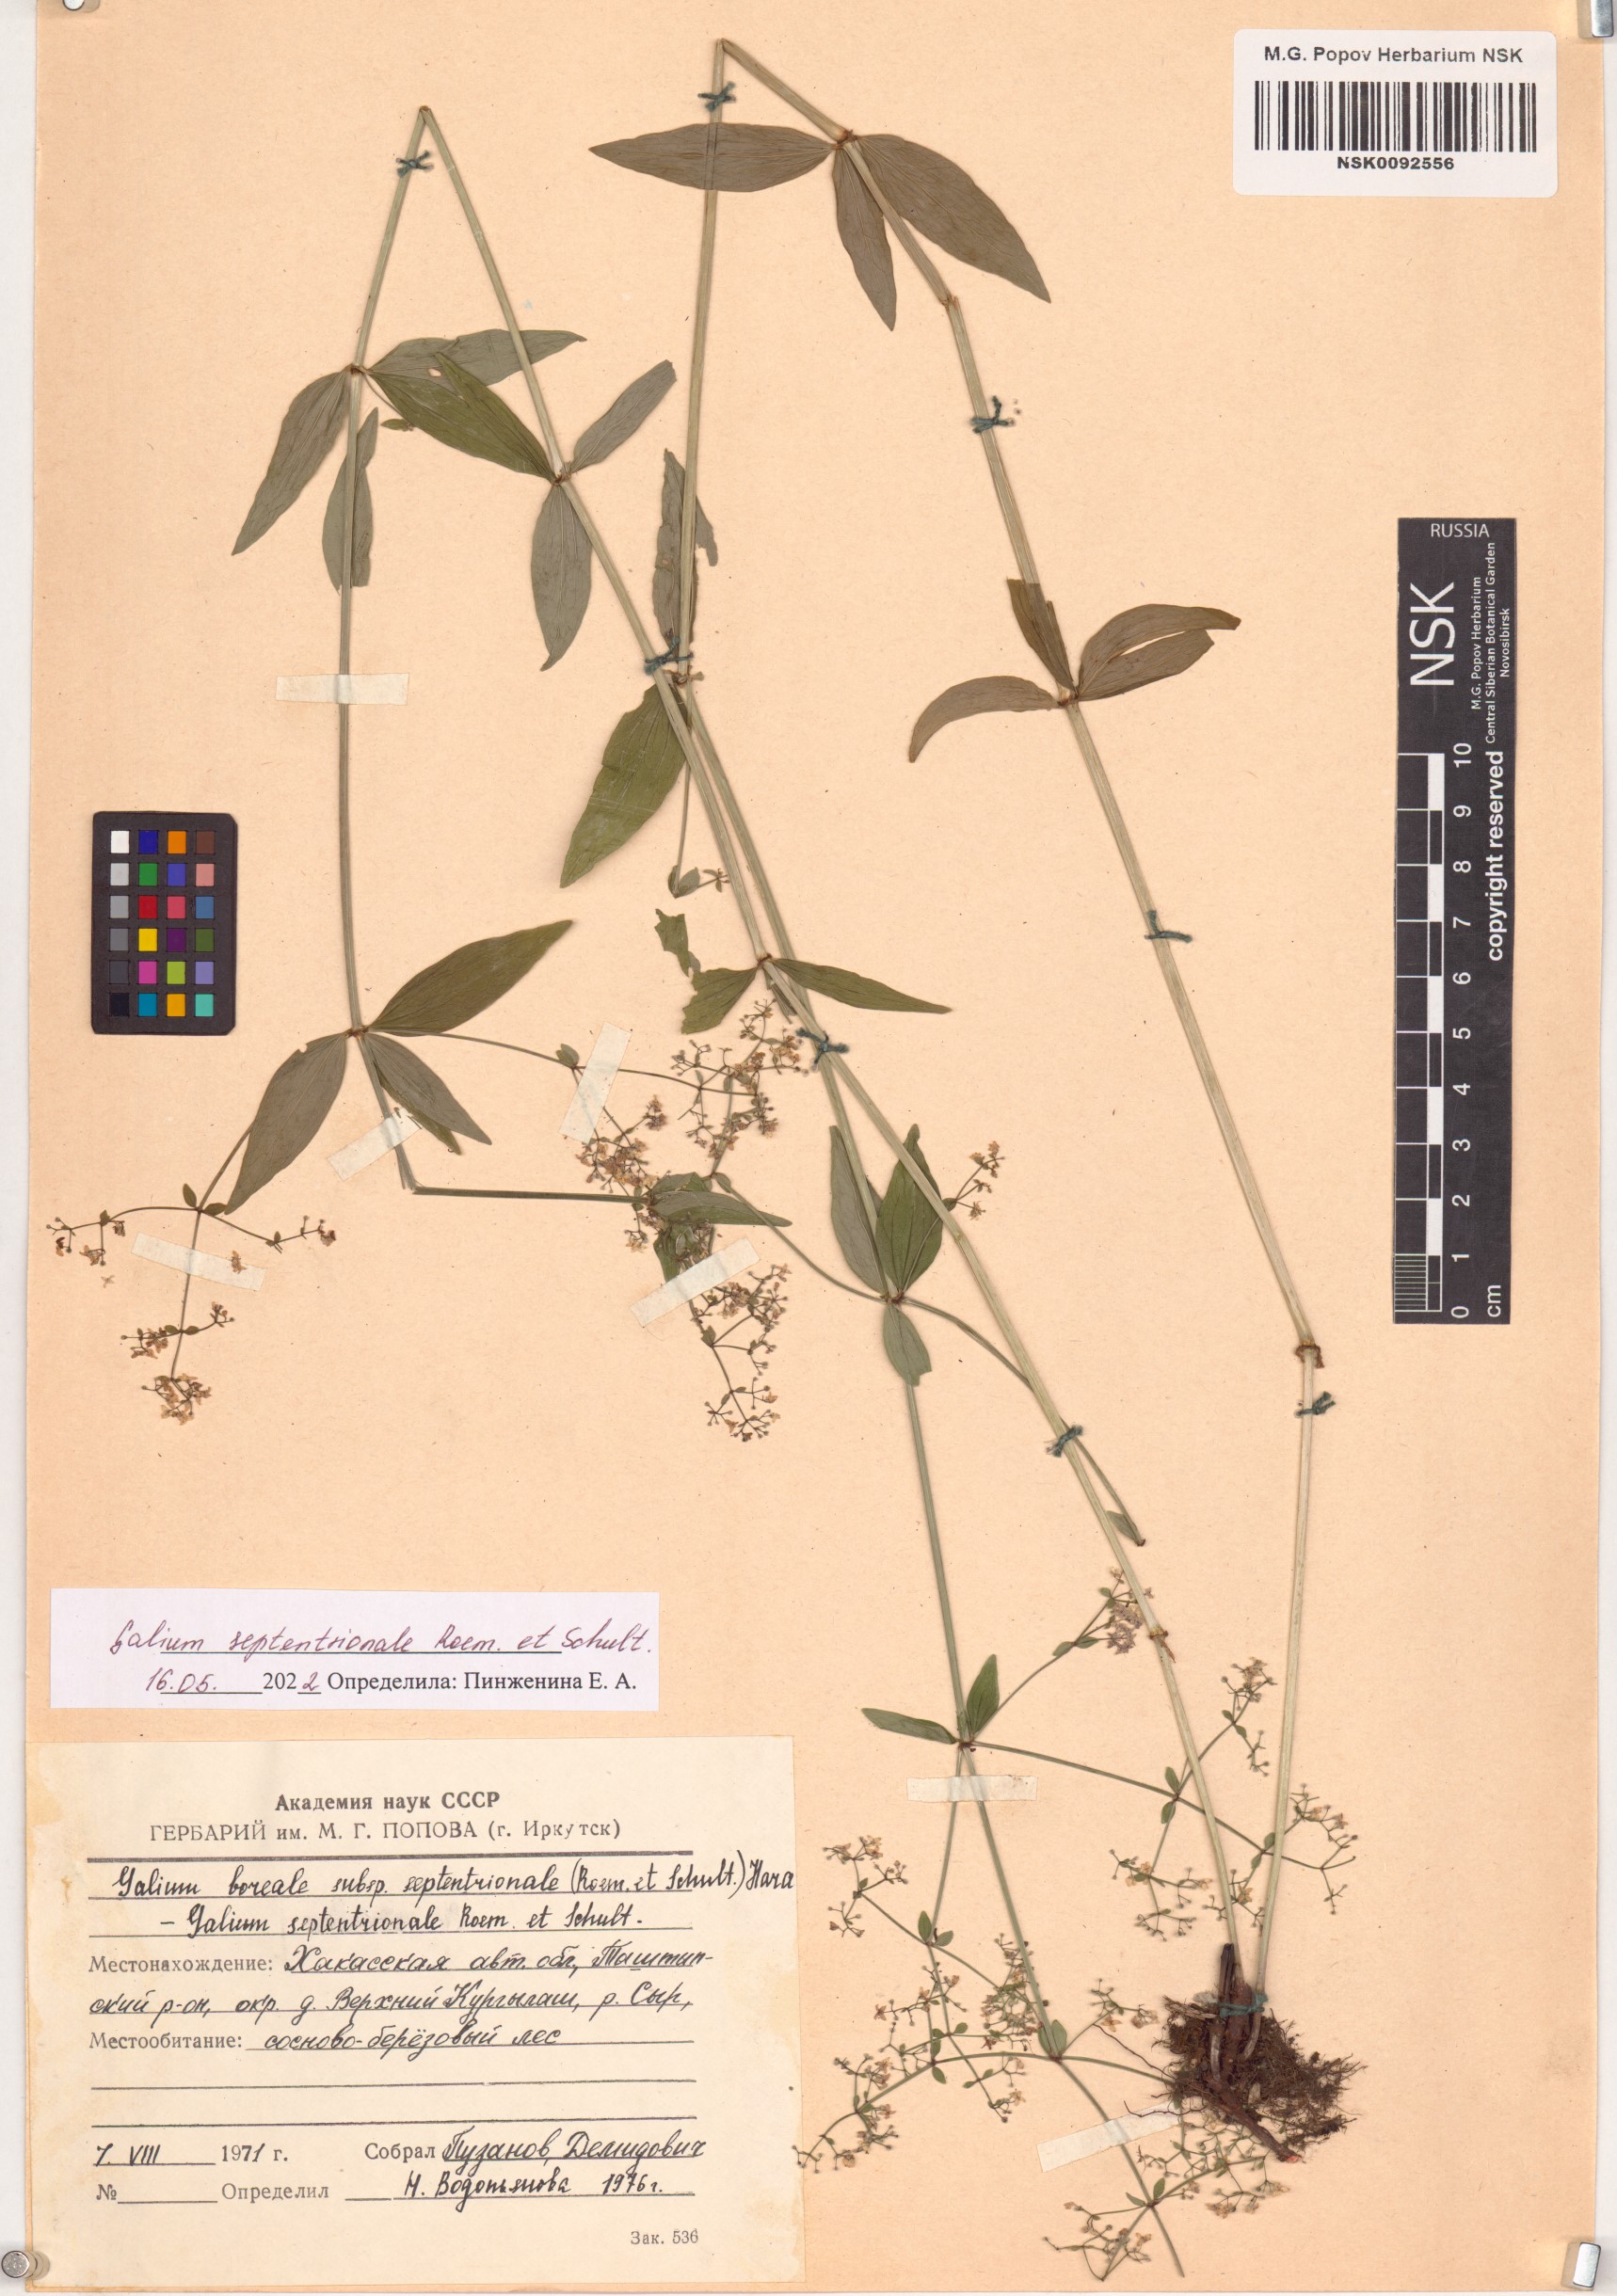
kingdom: Plantae
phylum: Tracheophyta
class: Magnoliopsida
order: Gentianales
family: Rubiaceae
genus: Galium
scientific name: Galium boreale
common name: Northern bedstraw
